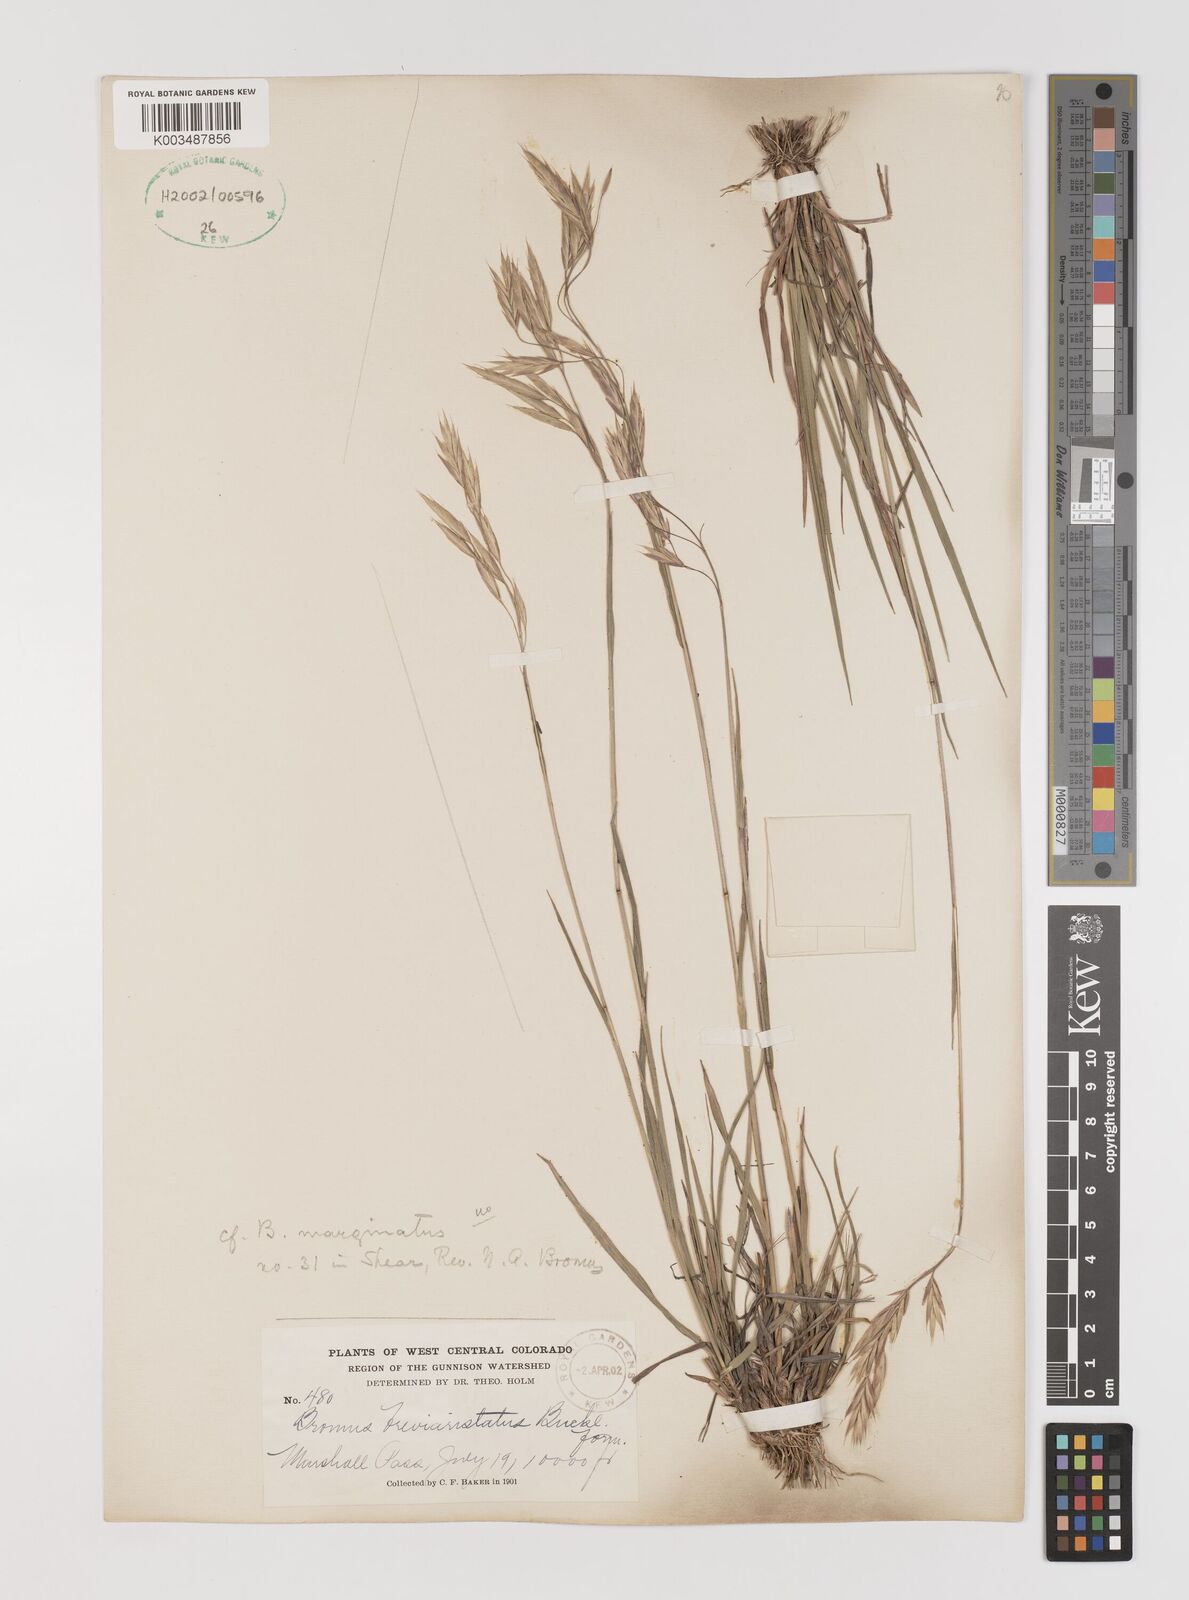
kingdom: Plantae
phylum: Tracheophyta
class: Liliopsida
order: Poales
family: Poaceae
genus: Bromus
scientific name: Bromus catharticus
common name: Rescuegrass
